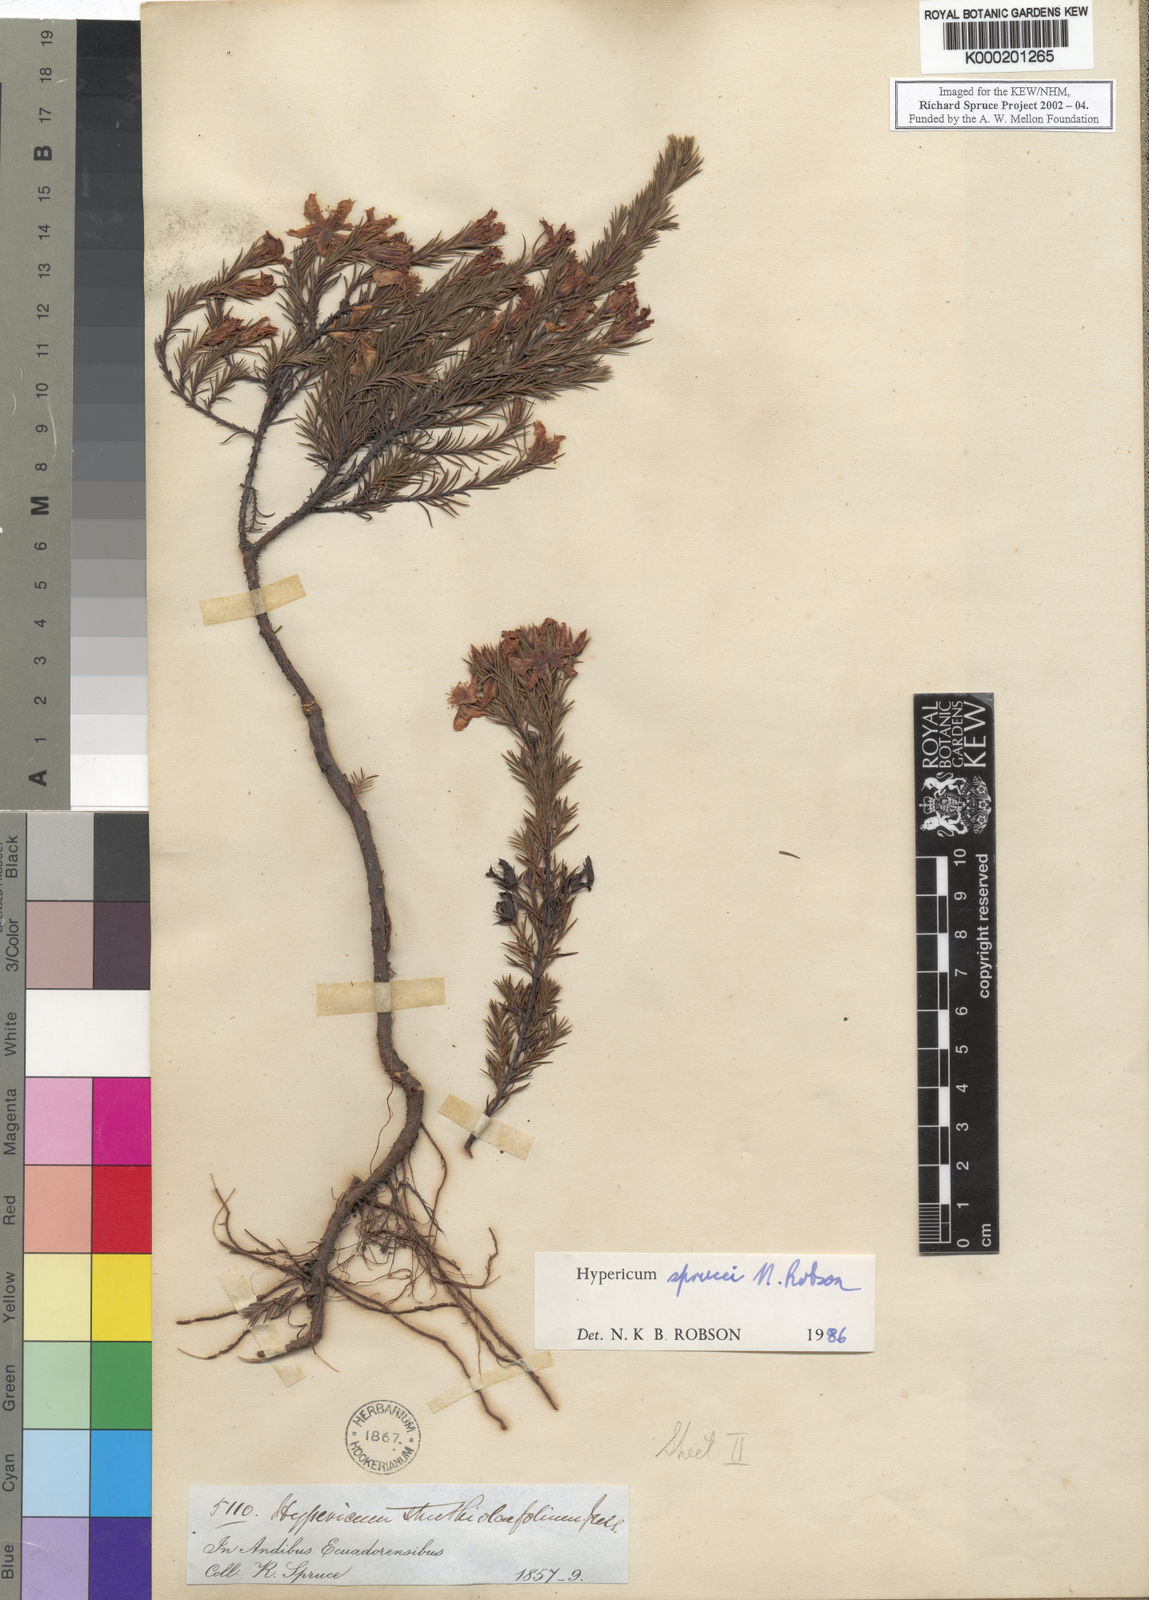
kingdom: Plantae
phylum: Tracheophyta
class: Magnoliopsida
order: Malpighiales
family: Hypericaceae
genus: Hypericum
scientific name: Hypericum sprucei
